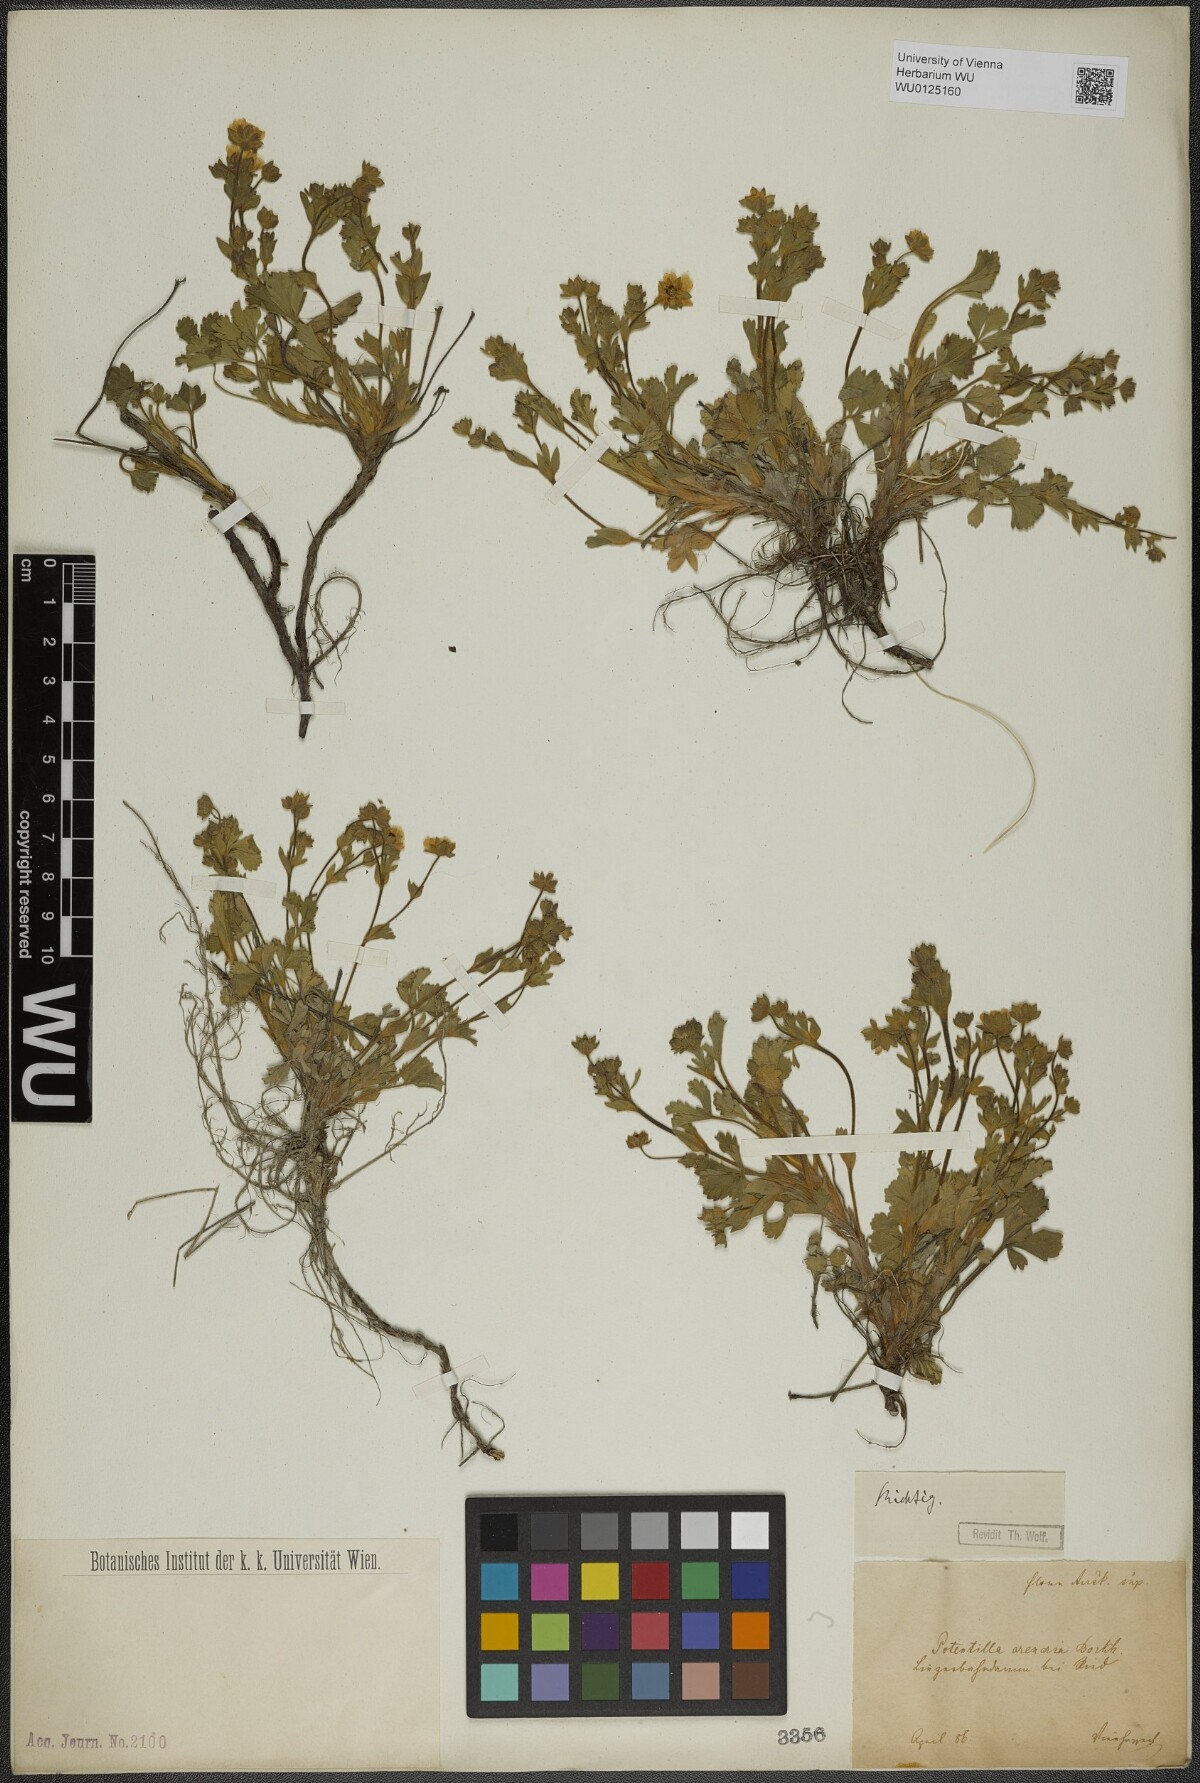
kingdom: Plantae
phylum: Tracheophyta
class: Magnoliopsida
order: Rosales
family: Rosaceae
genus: Potentilla
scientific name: Potentilla cinerea
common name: Ashy cinquefoil
